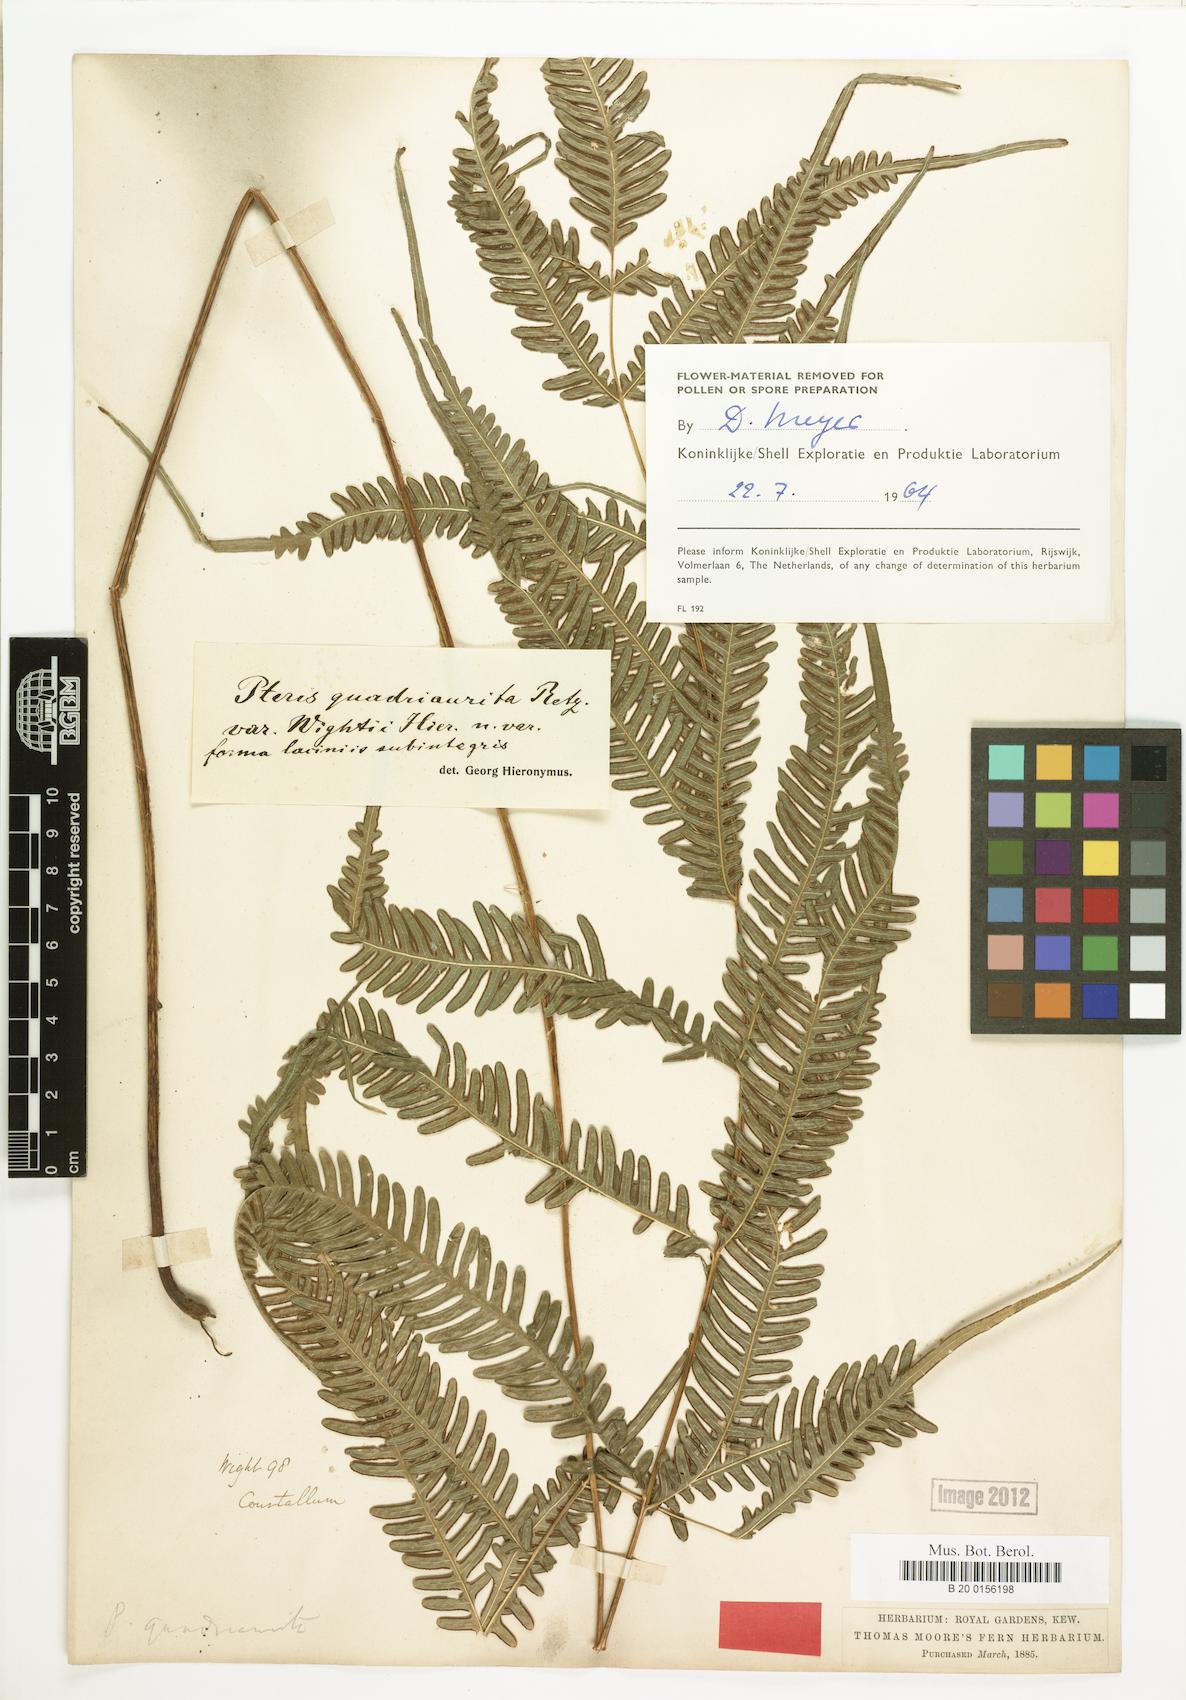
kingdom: Plantae
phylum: Tracheophyta
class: Polypodiopsida
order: Polypodiales
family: Pteridaceae
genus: Pteris
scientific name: Pteris quadriaurita
